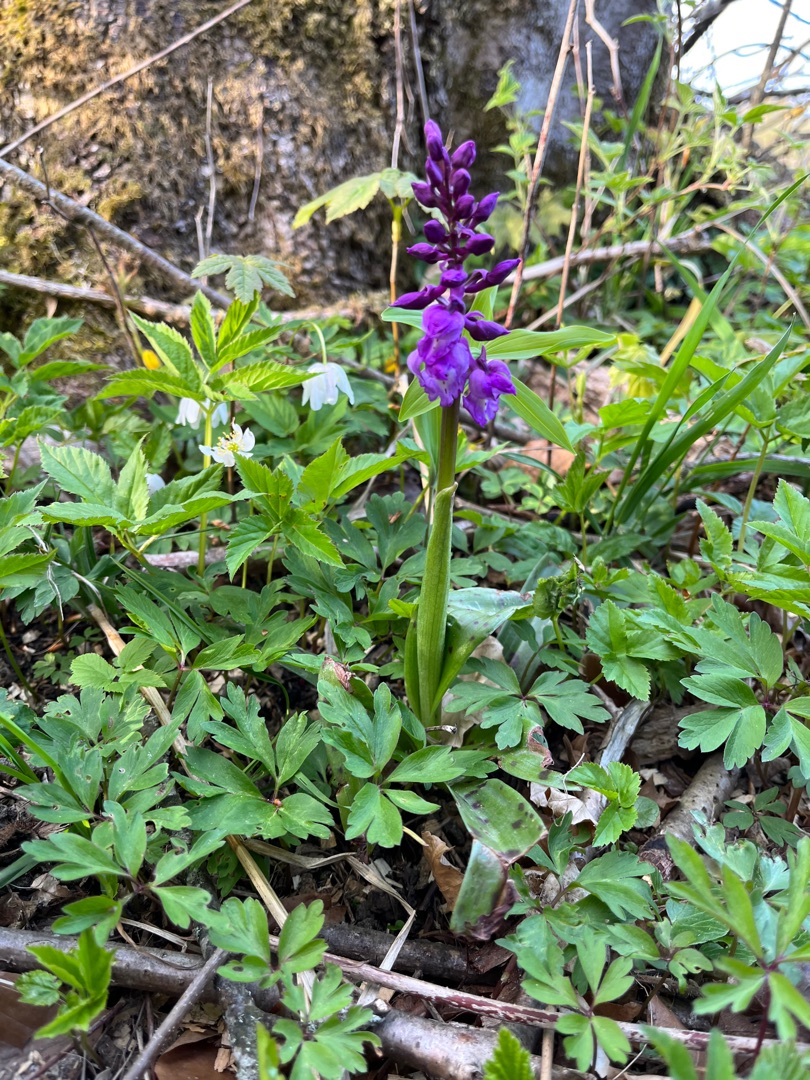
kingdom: Plantae
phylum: Tracheophyta
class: Liliopsida
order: Asparagales
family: Orchidaceae
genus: Orchis
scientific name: Orchis mascula
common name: Tyndakset gøgeurt
